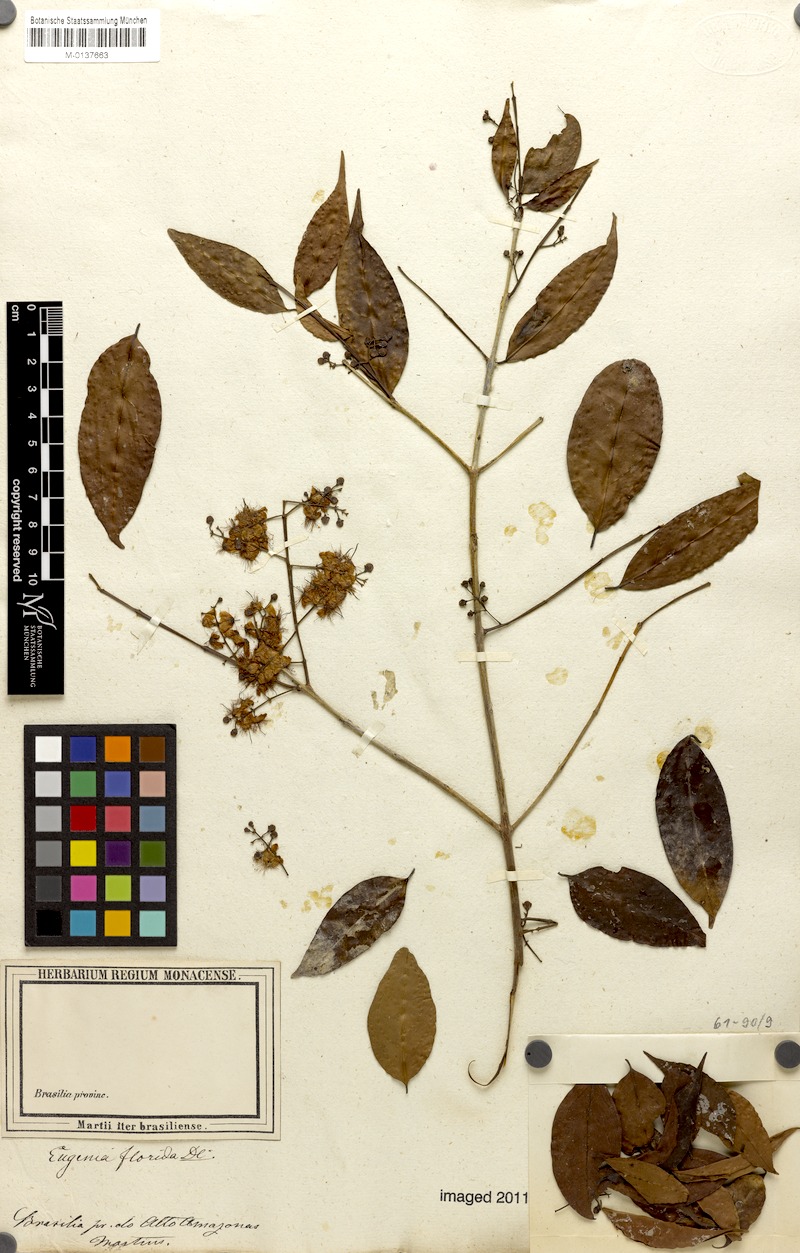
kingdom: Plantae
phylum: Tracheophyta
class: Magnoliopsida
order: Myrtales
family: Myrtaceae
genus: Eugenia
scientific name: Eugenia florida
